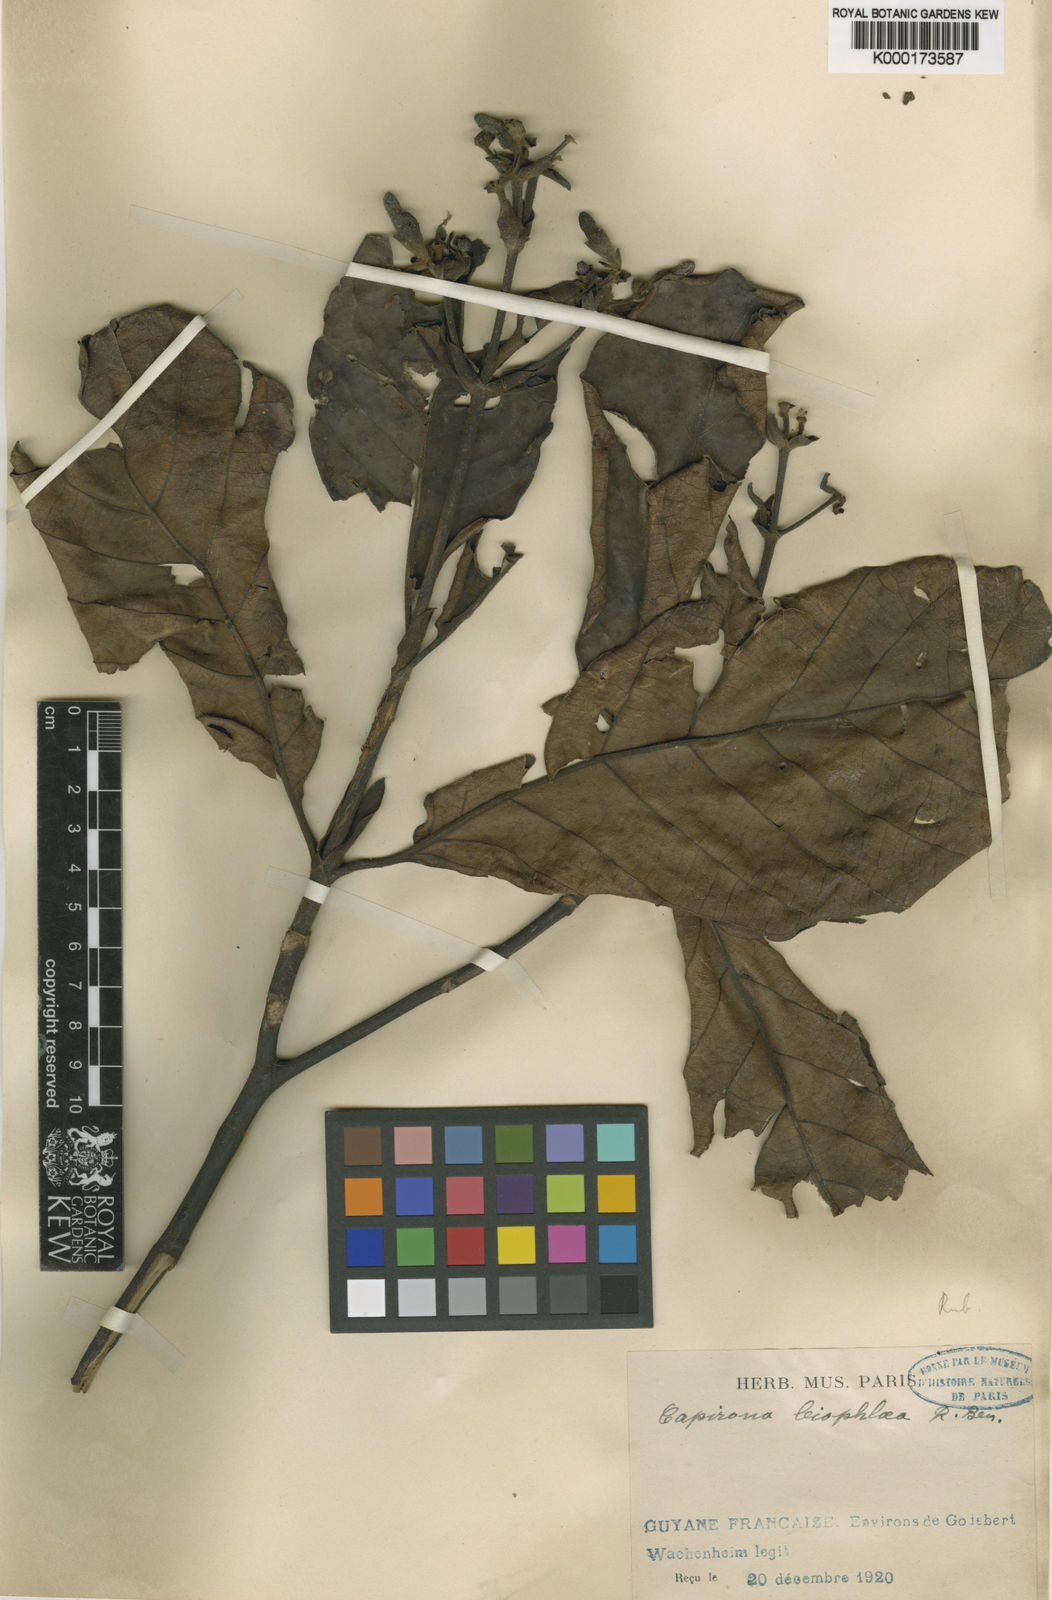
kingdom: Plantae
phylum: Tracheophyta
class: Magnoliopsida
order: Gentianales
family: Rubiaceae
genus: Capirona
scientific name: Capirona macrophylla
